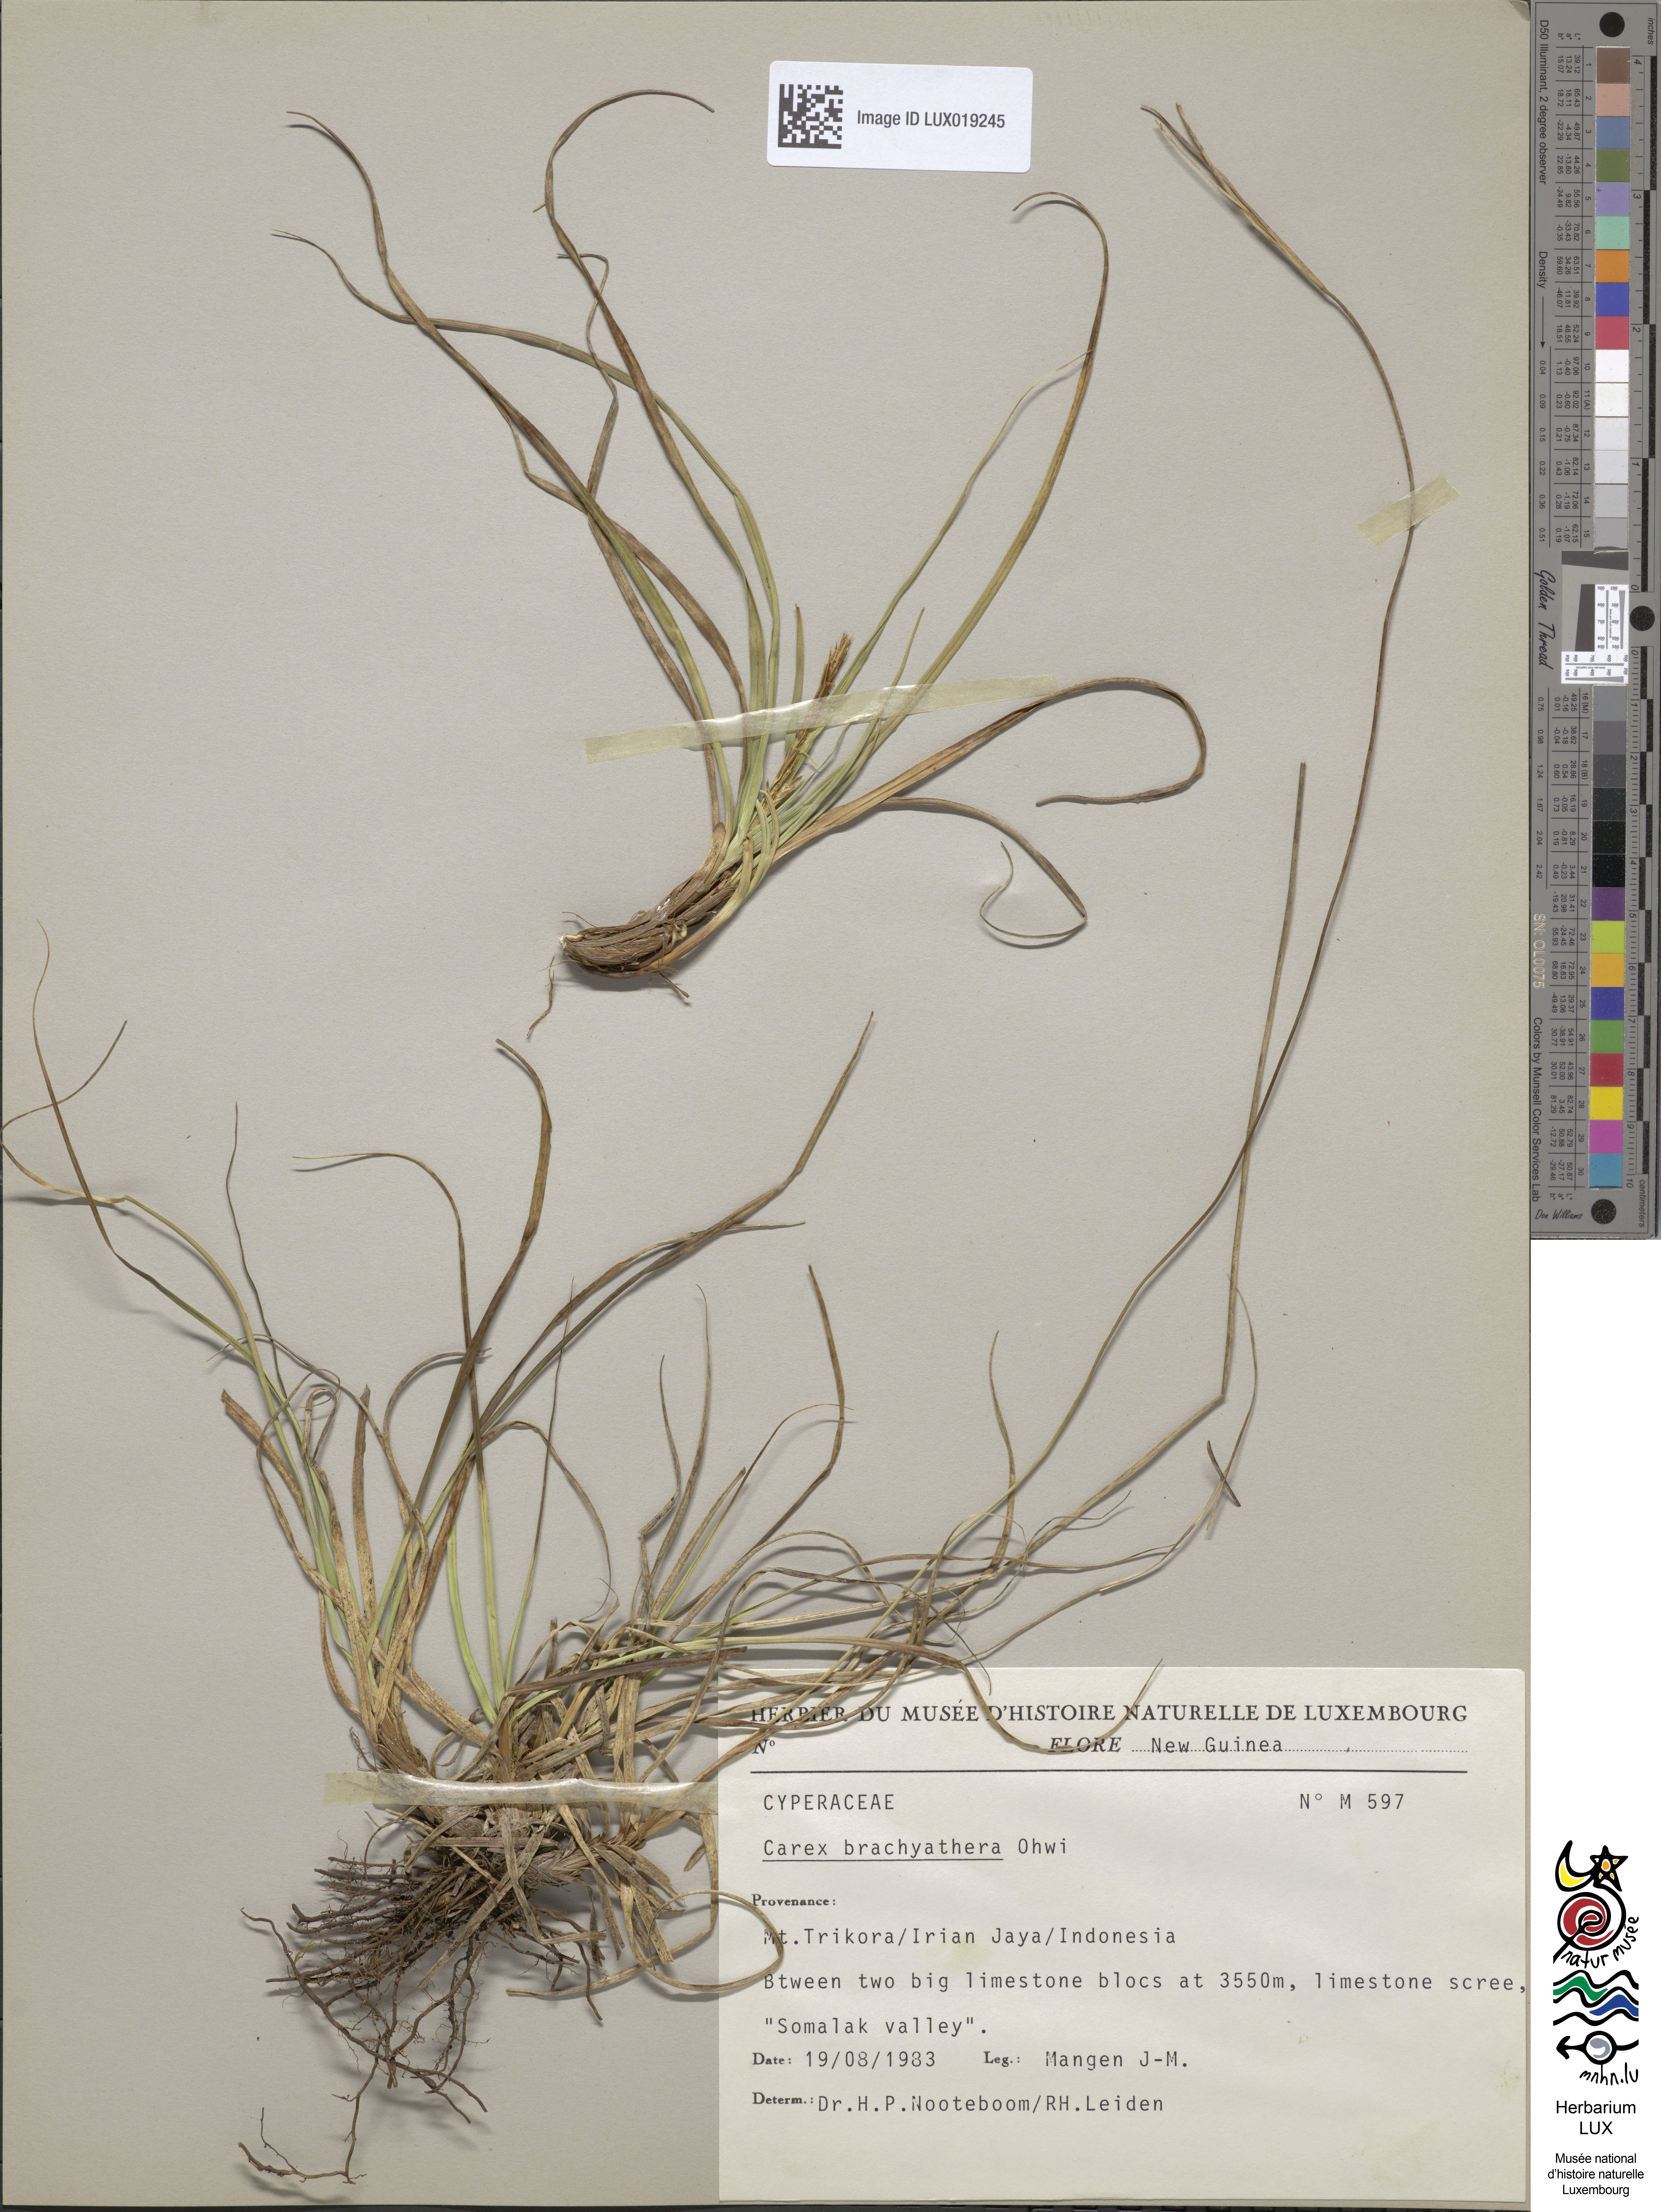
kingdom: Plantae
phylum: Tracheophyta
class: Liliopsida
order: Poales
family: Cyperaceae
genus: Carex
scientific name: Carex brachyanthera
